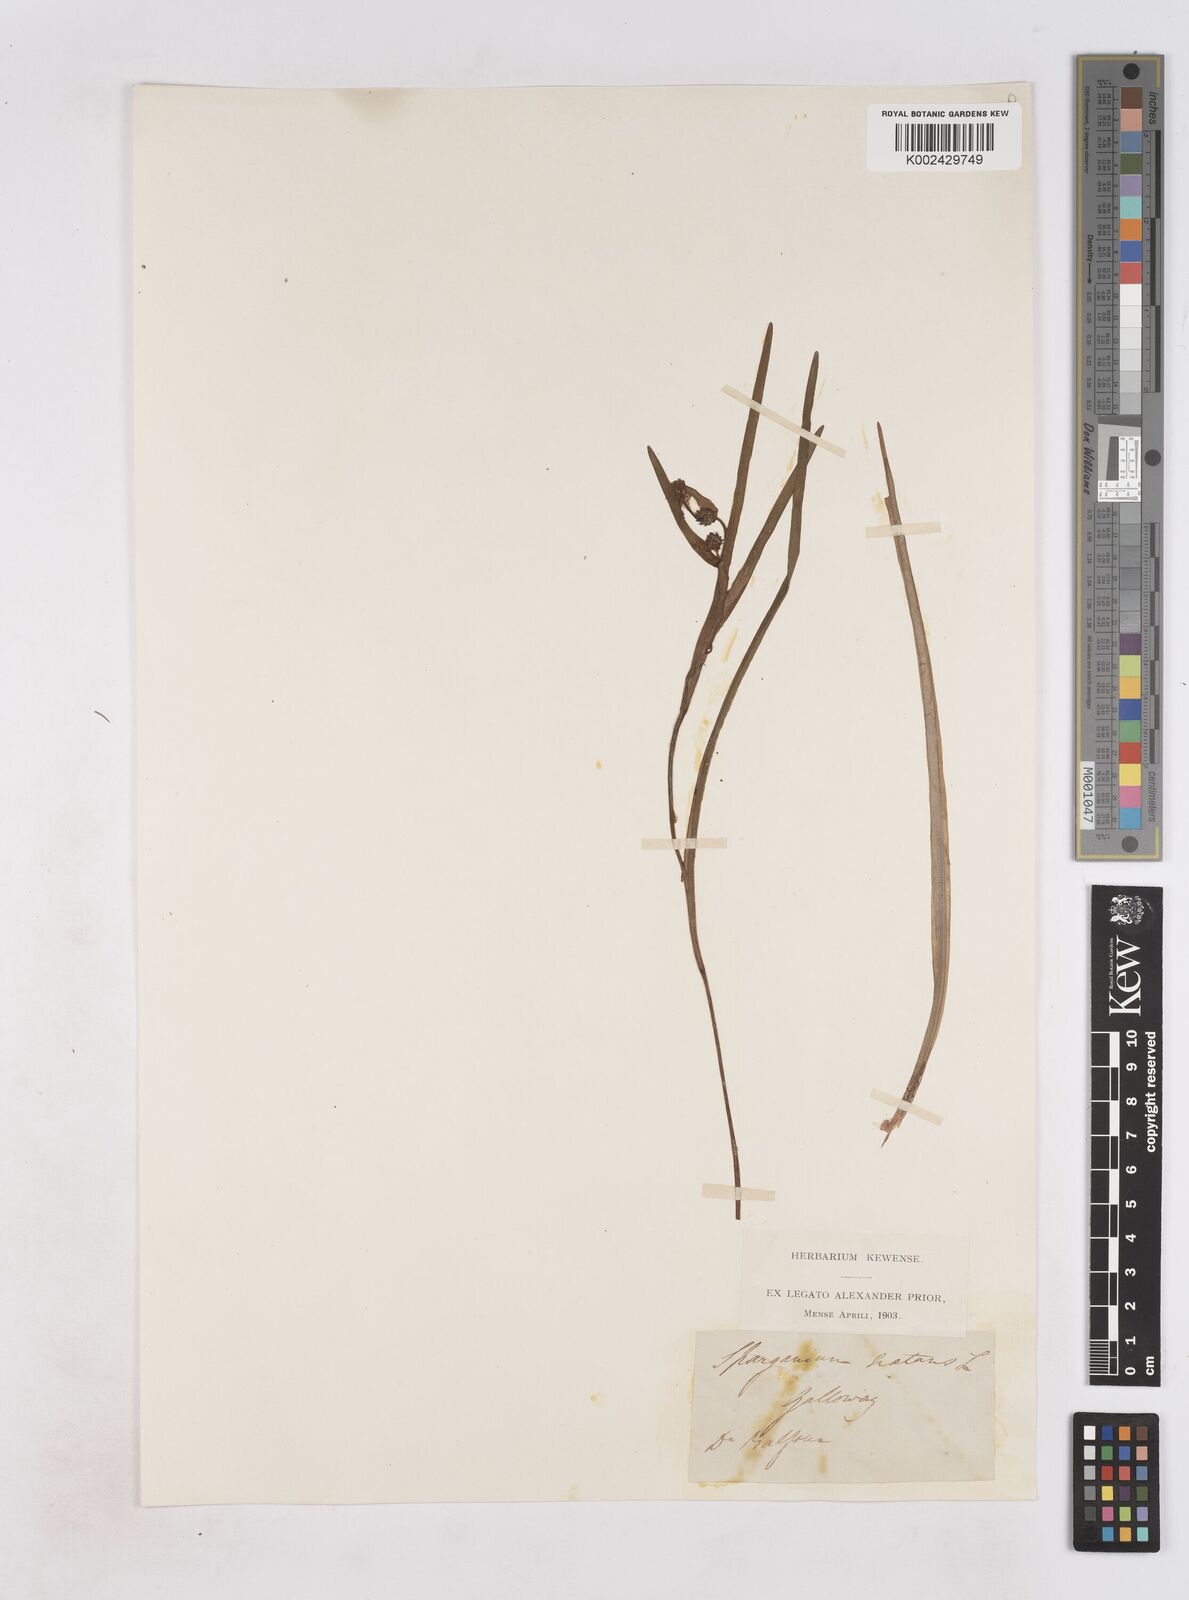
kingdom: Plantae
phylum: Tracheophyta
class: Liliopsida
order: Poales
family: Typhaceae
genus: Sparganium
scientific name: Sparganium angustifolium
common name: Floating bur-reed
